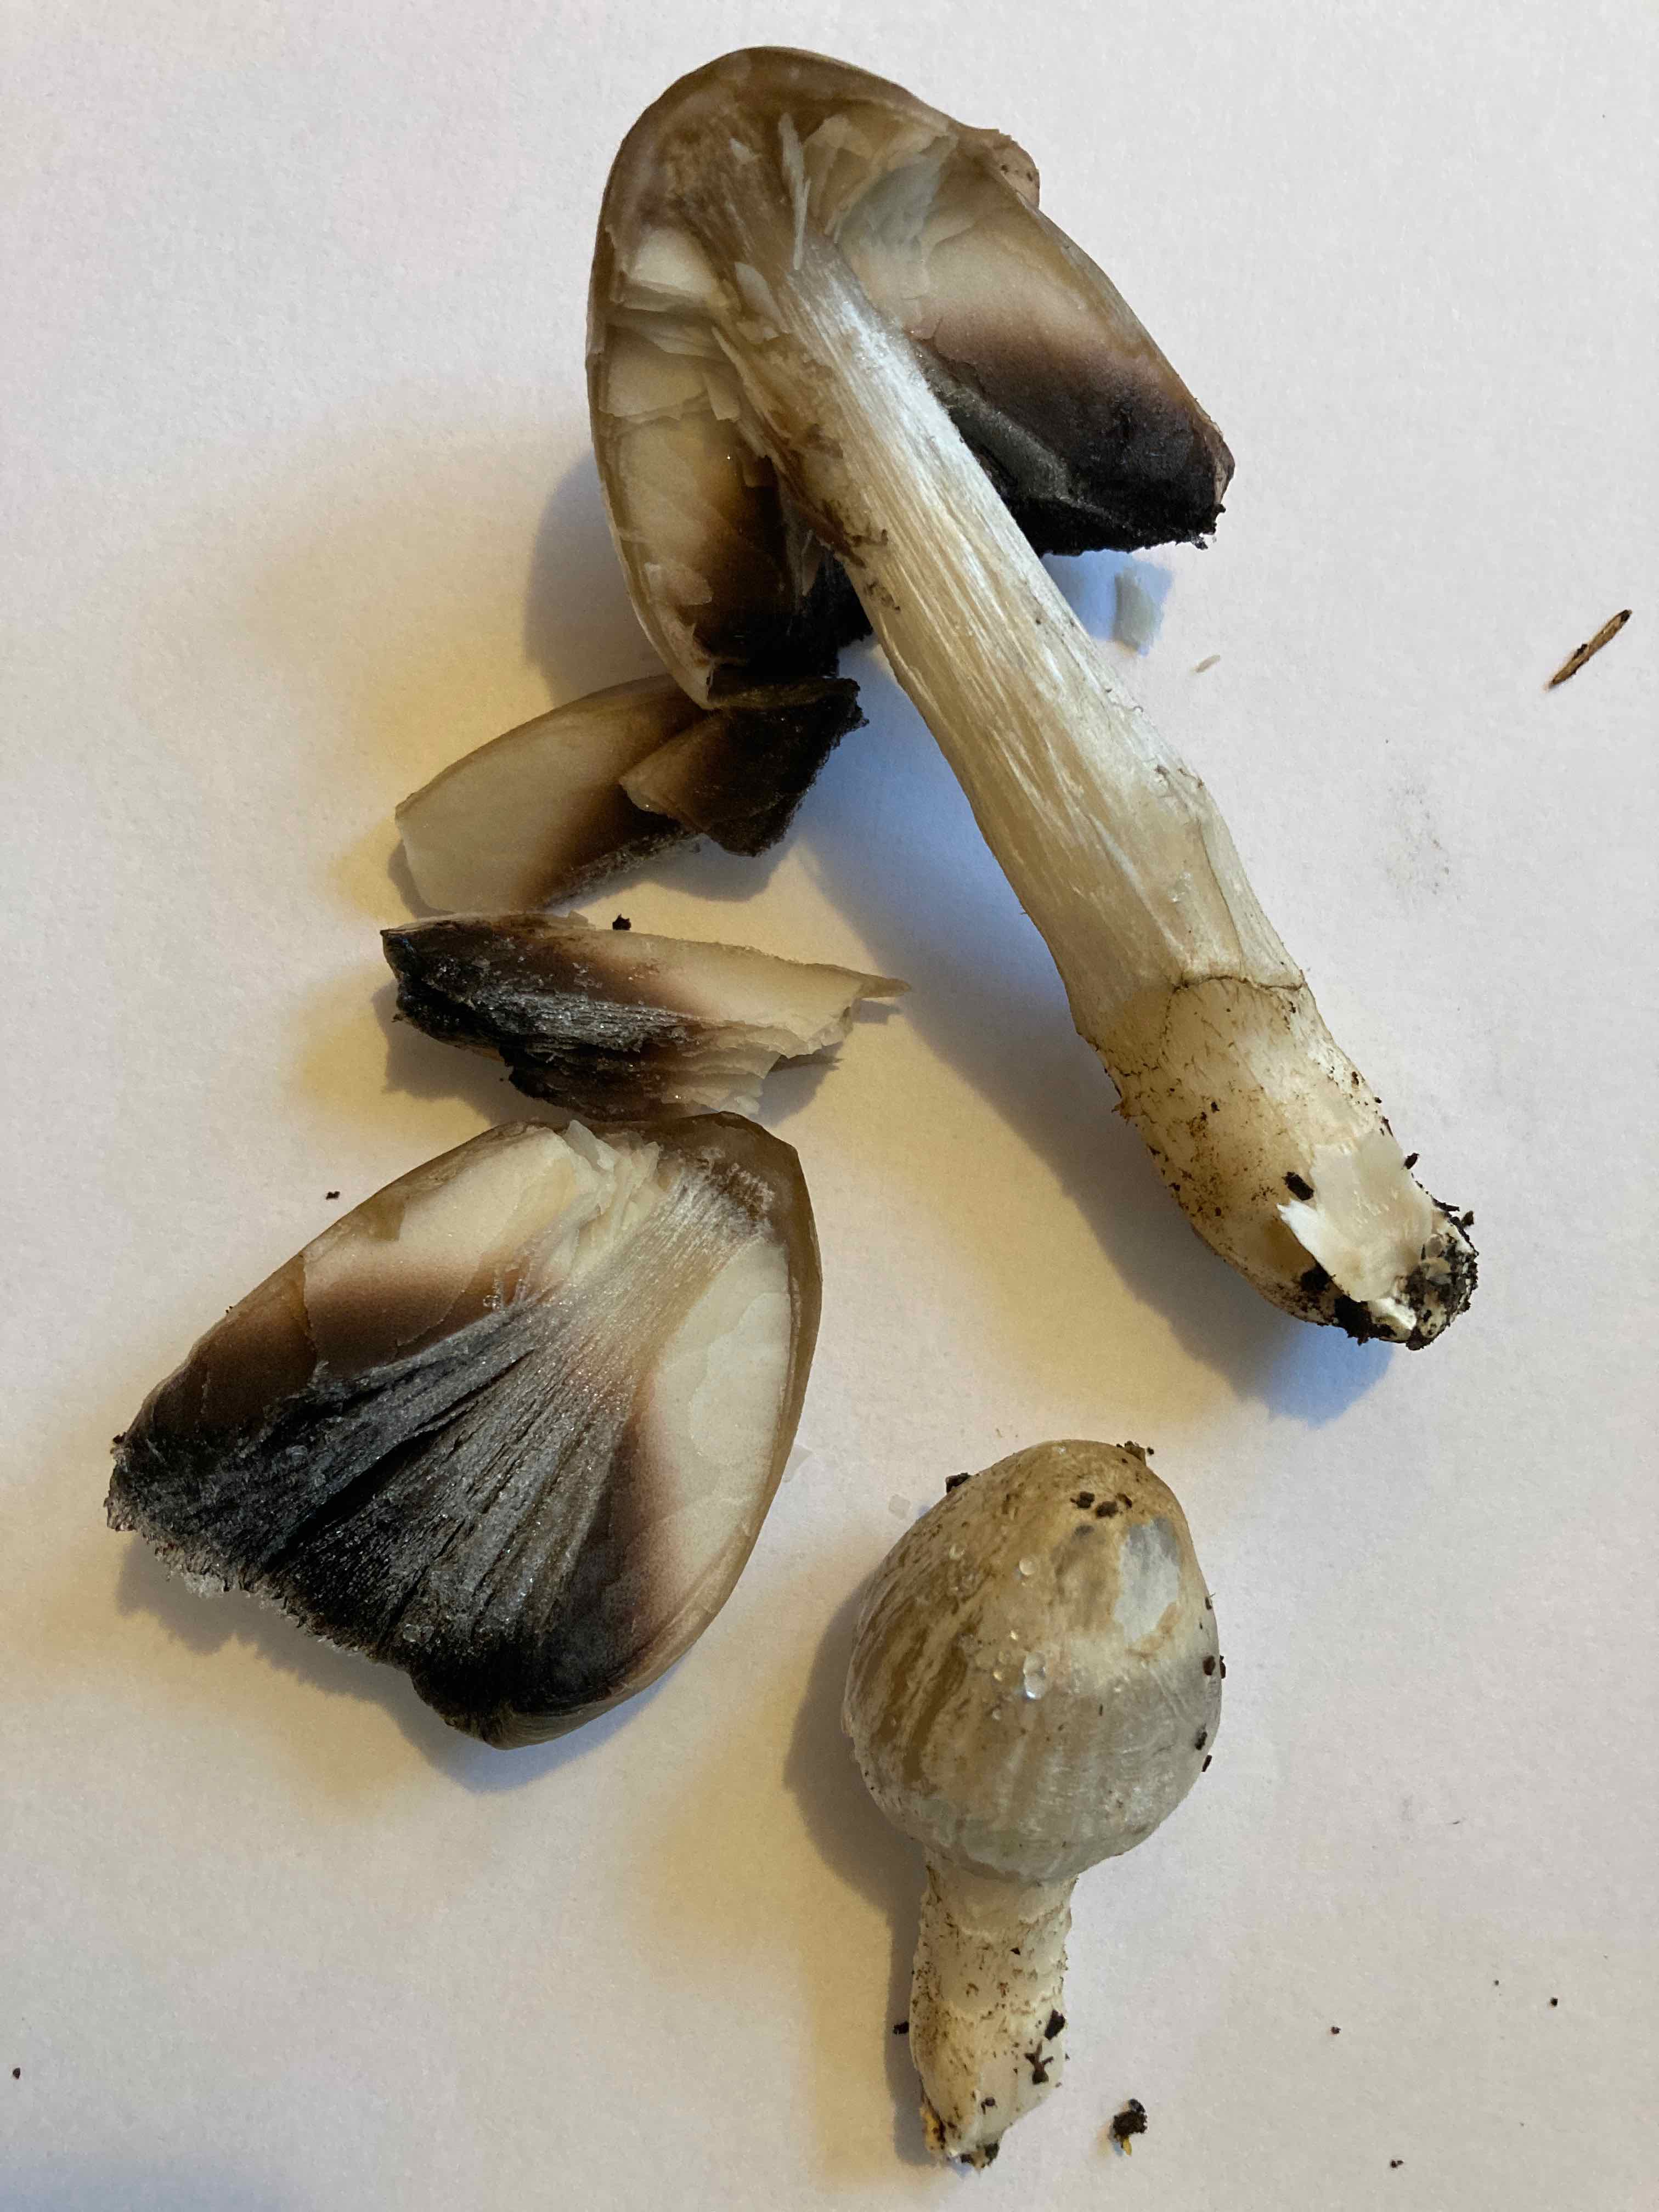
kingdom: Fungi
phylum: Basidiomycota
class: Agaricomycetes
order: Agaricales
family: Psathyrellaceae
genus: Coprinopsis
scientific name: Coprinopsis atramentaria
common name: almindelig blækhat
